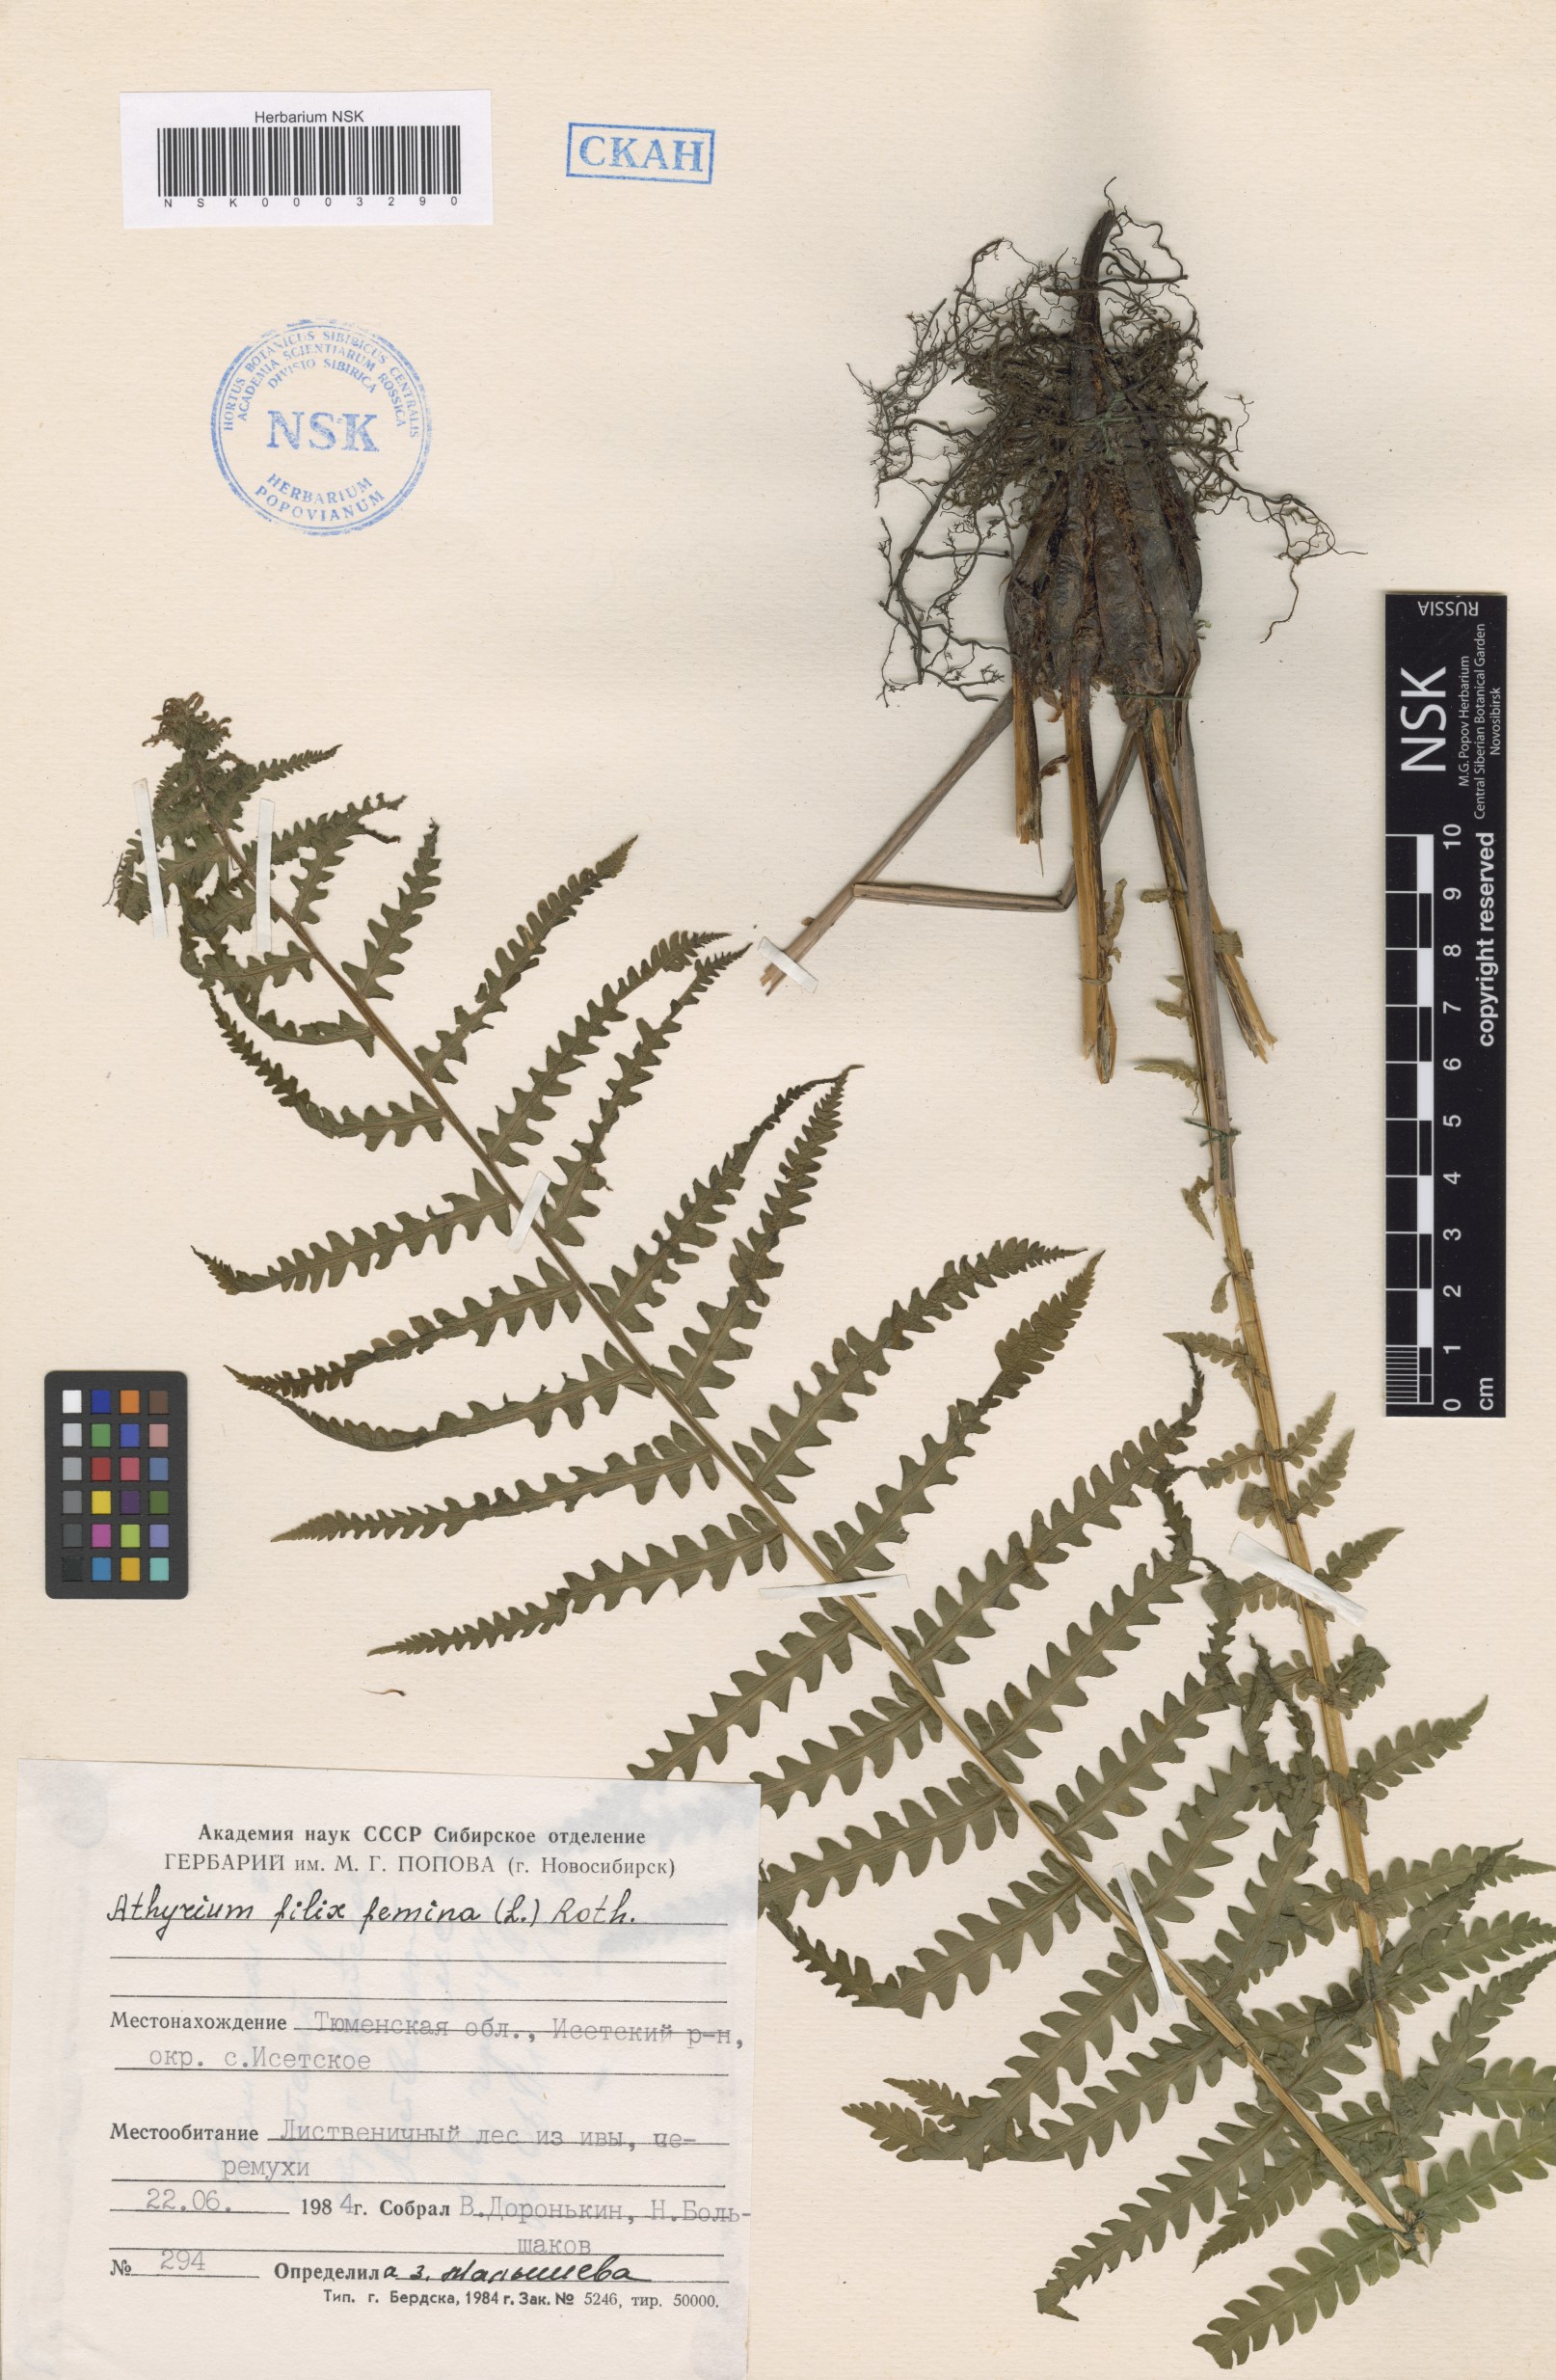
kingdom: Plantae
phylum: Tracheophyta
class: Polypodiopsida
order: Polypodiales
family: Athyriaceae
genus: Athyrium
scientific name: Athyrium filix-femina
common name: Lady fern
